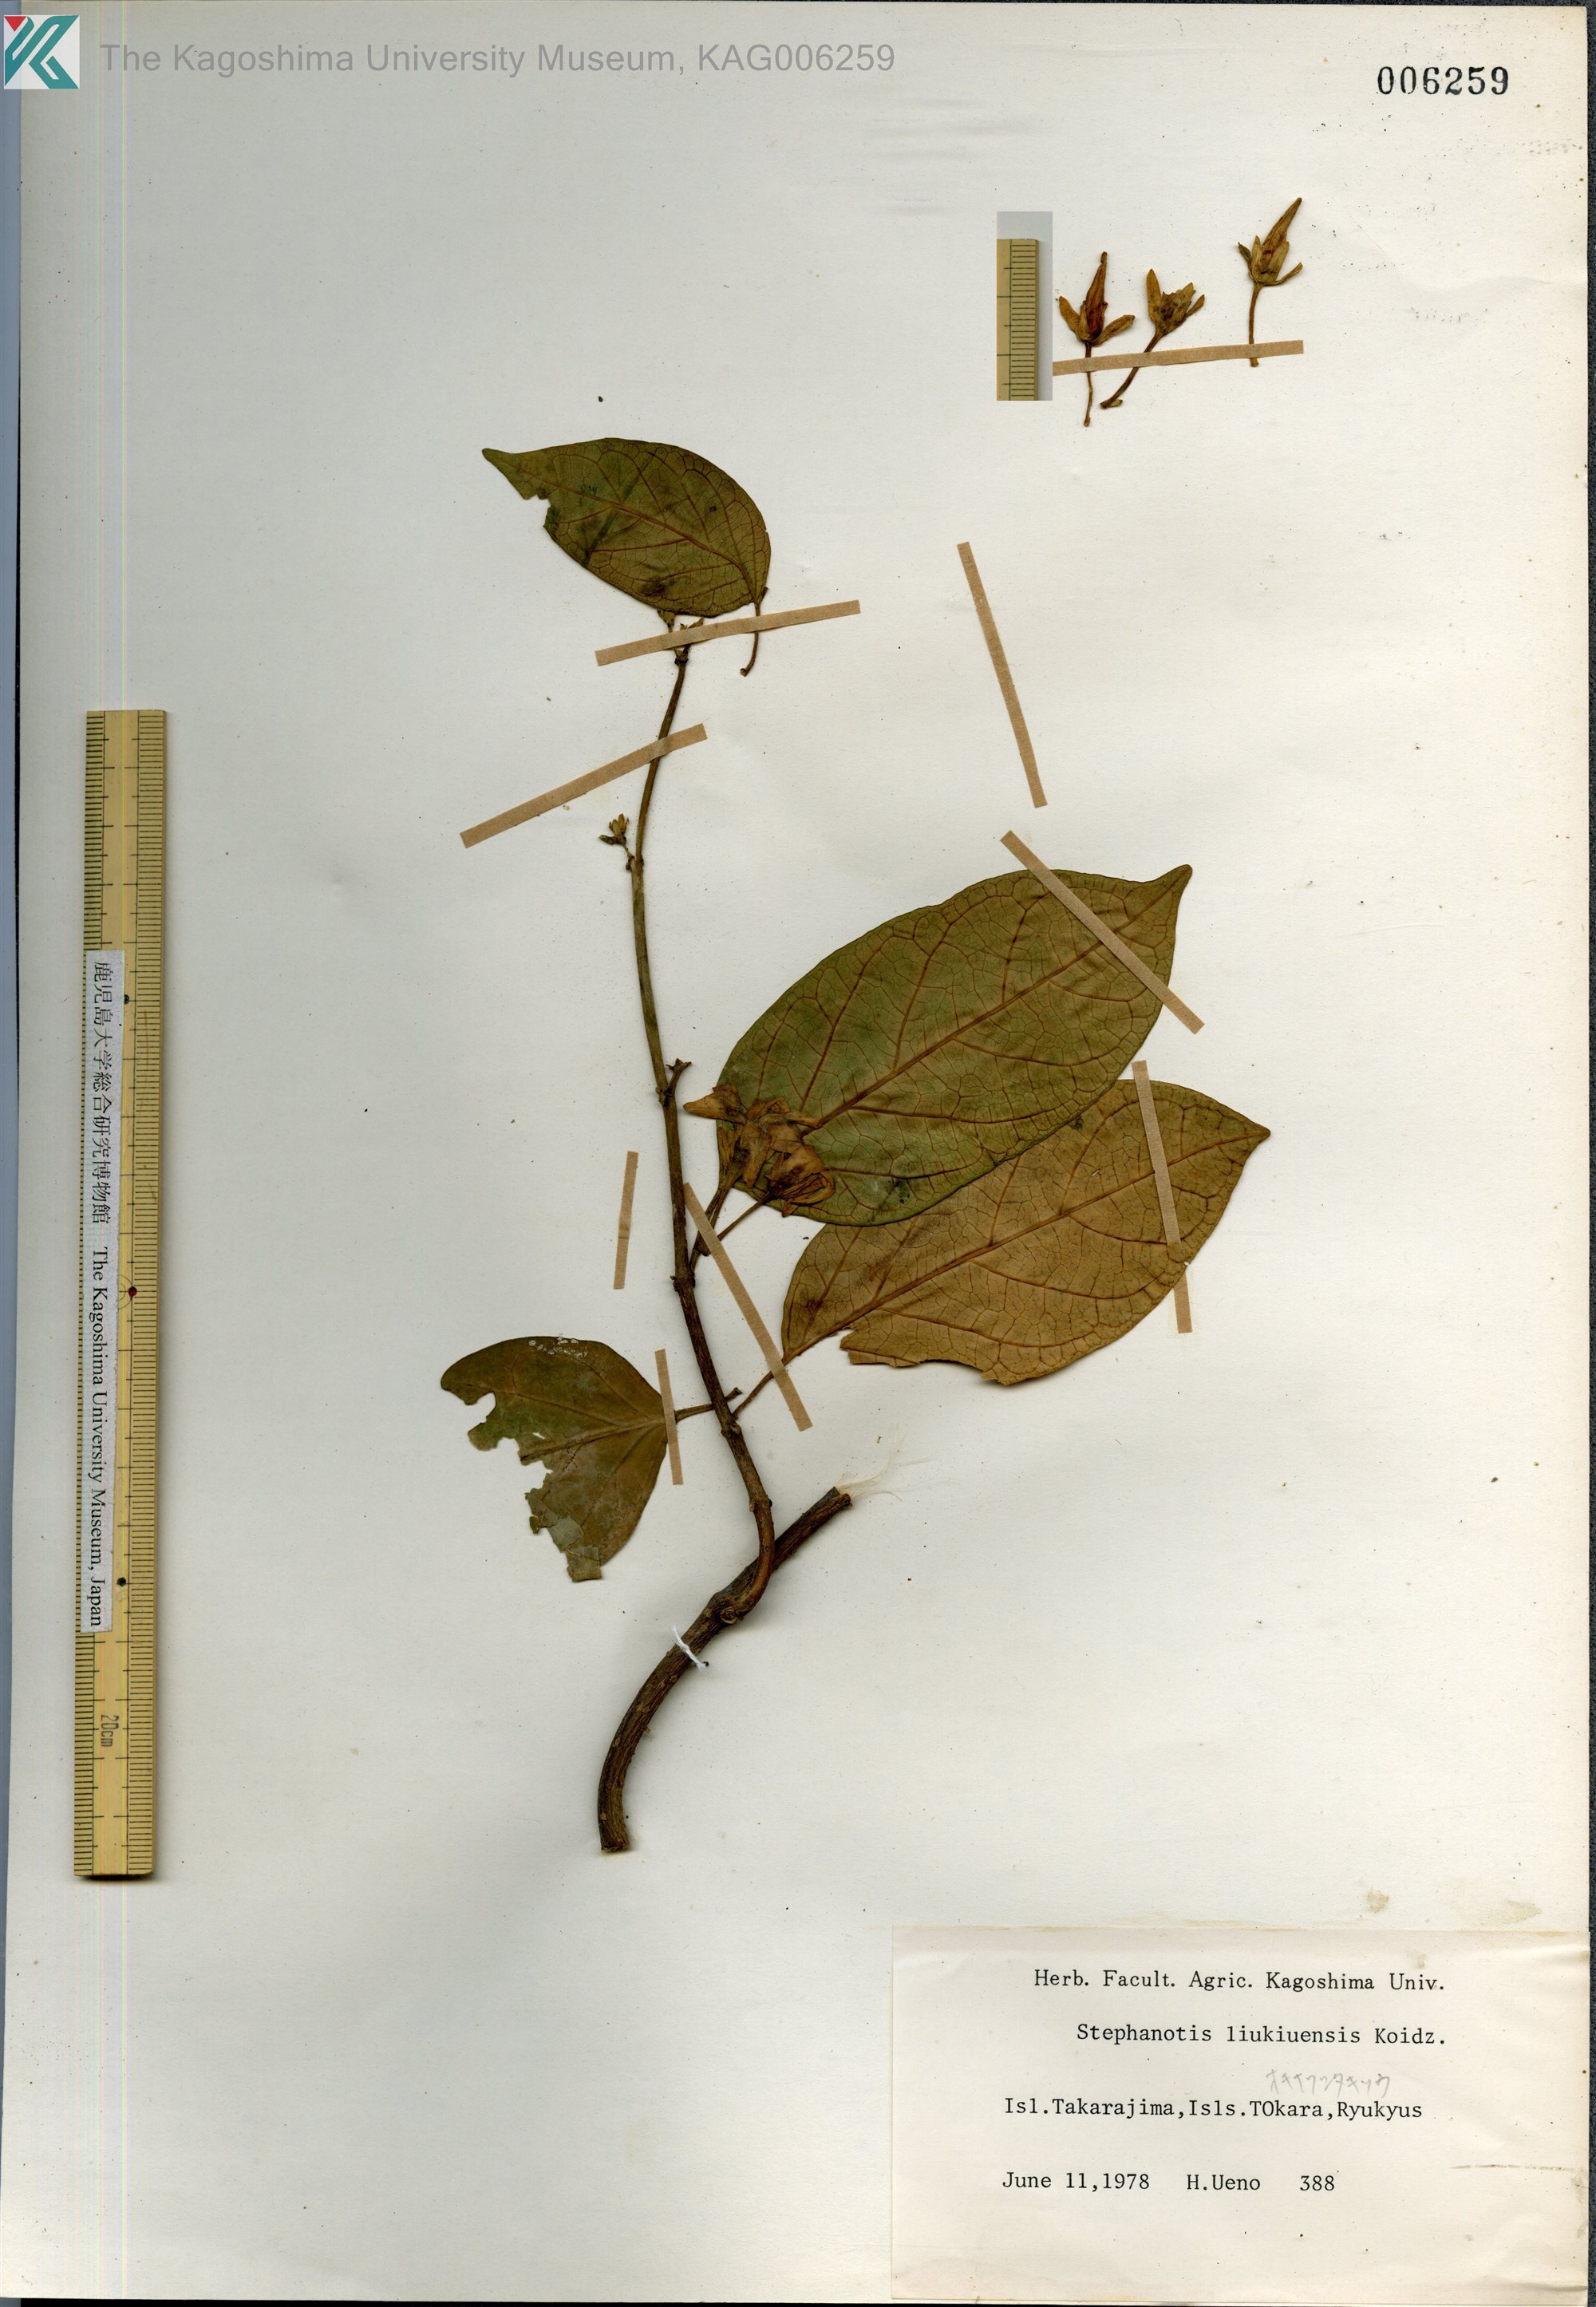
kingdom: Plantae
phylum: Tracheophyta
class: Magnoliopsida
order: Gentianales
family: Apocynaceae
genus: Jasminanthes
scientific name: Jasminanthes mucronata
